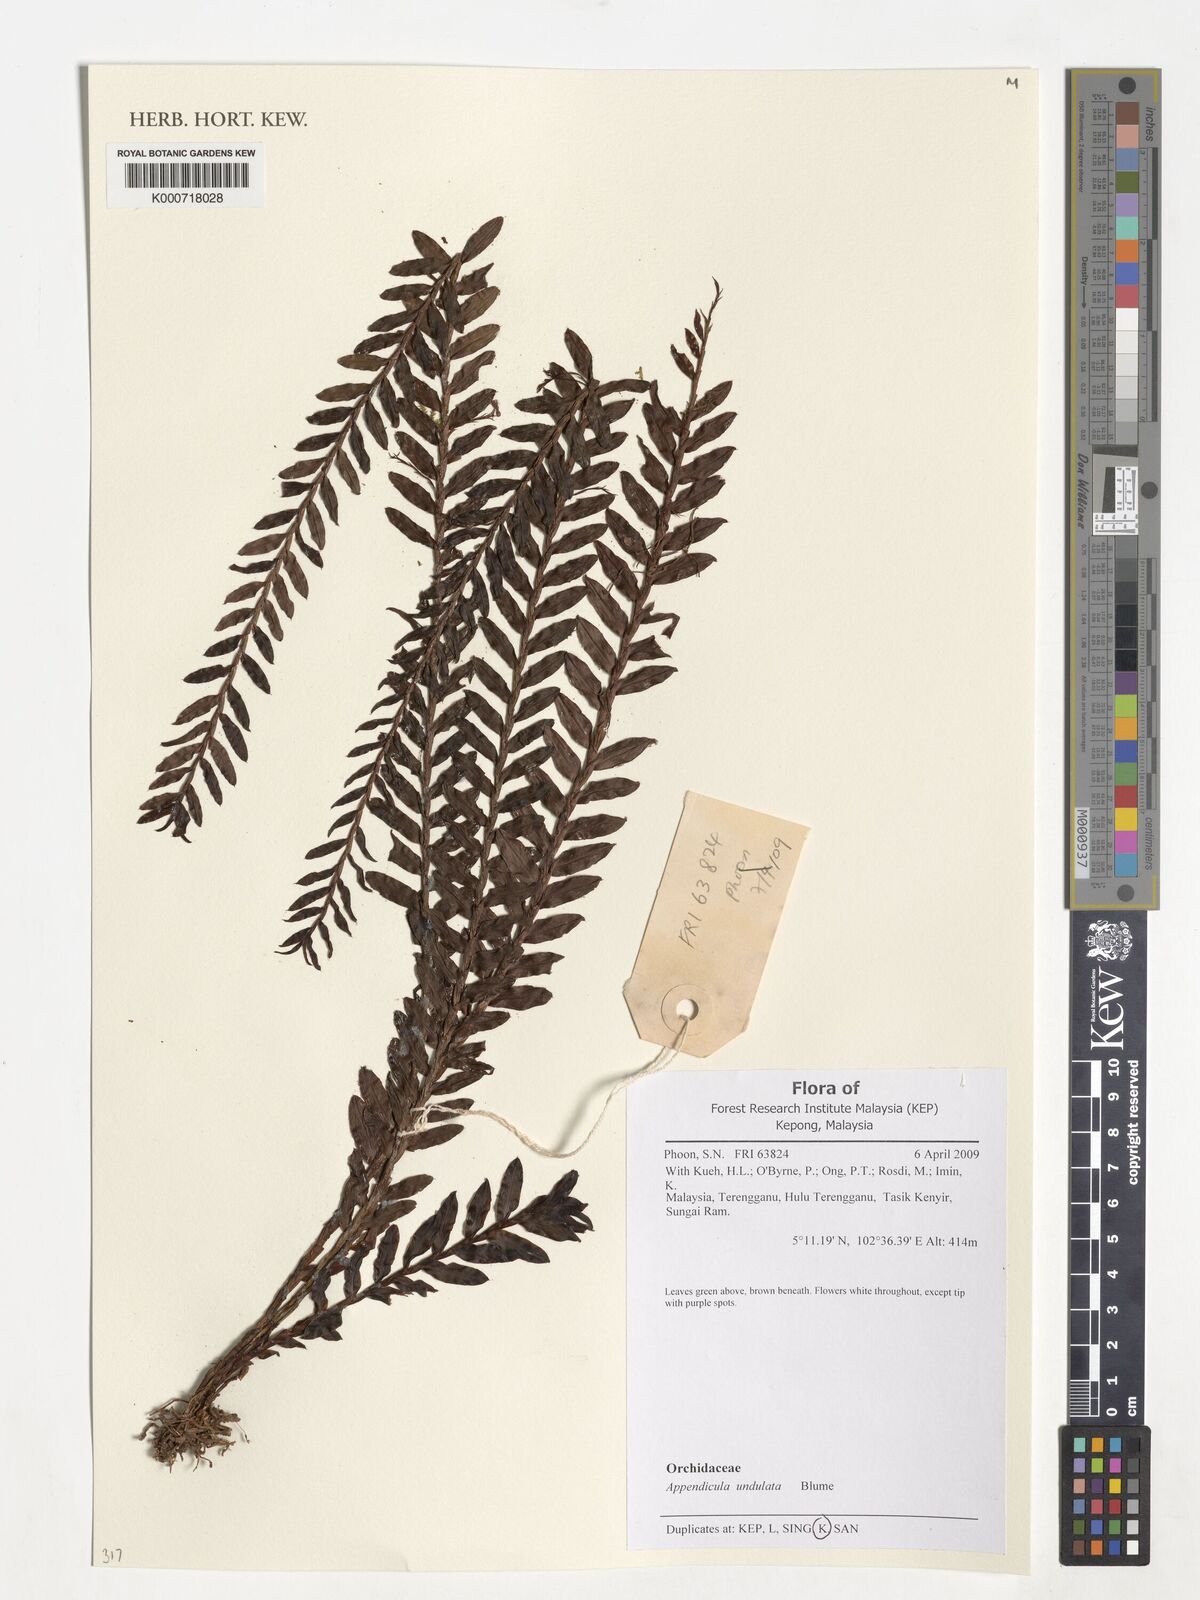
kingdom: Plantae
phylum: Tracheophyta
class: Liliopsida
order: Asparagales
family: Orchidaceae
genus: Appendicula
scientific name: Appendicula undulata
